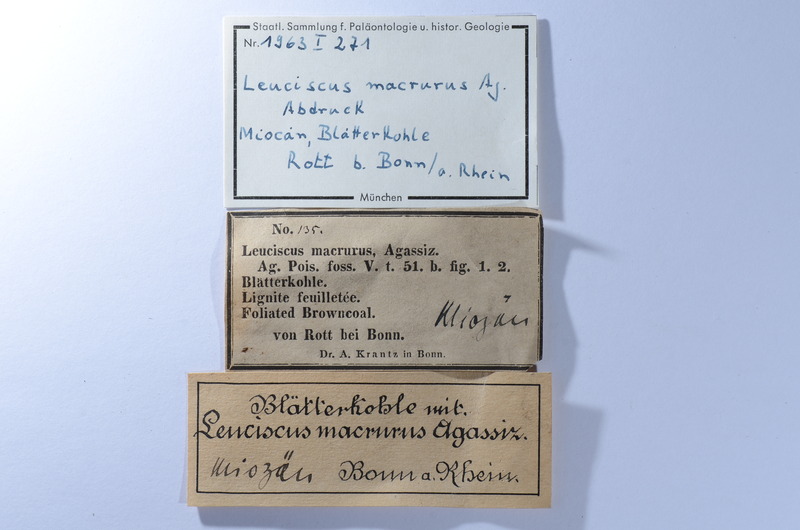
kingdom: Animalia
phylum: Chordata
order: Cypriniformes
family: Cyprinidae
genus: Tarsichthys
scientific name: Tarsichthys macrurus
